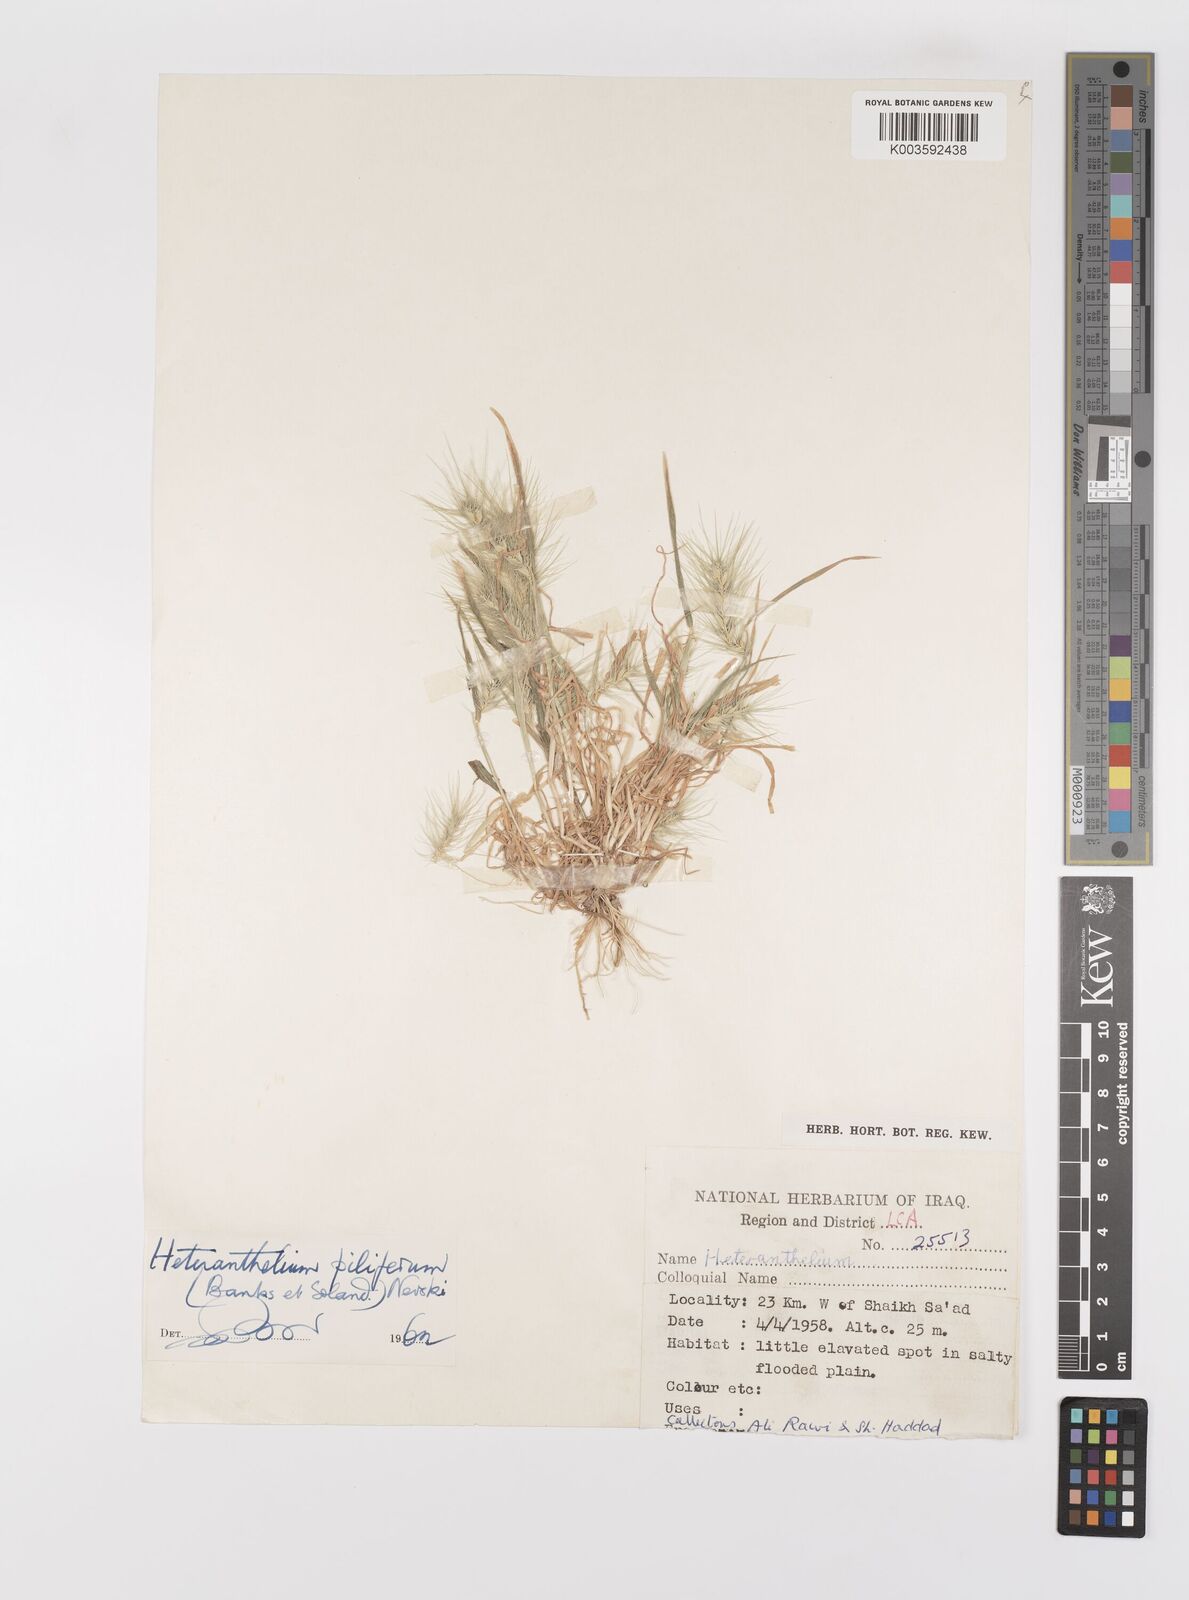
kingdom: Plantae
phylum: Tracheophyta
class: Liliopsida
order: Poales
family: Poaceae
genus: Heteranthelium
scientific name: Heteranthelium piliferum
